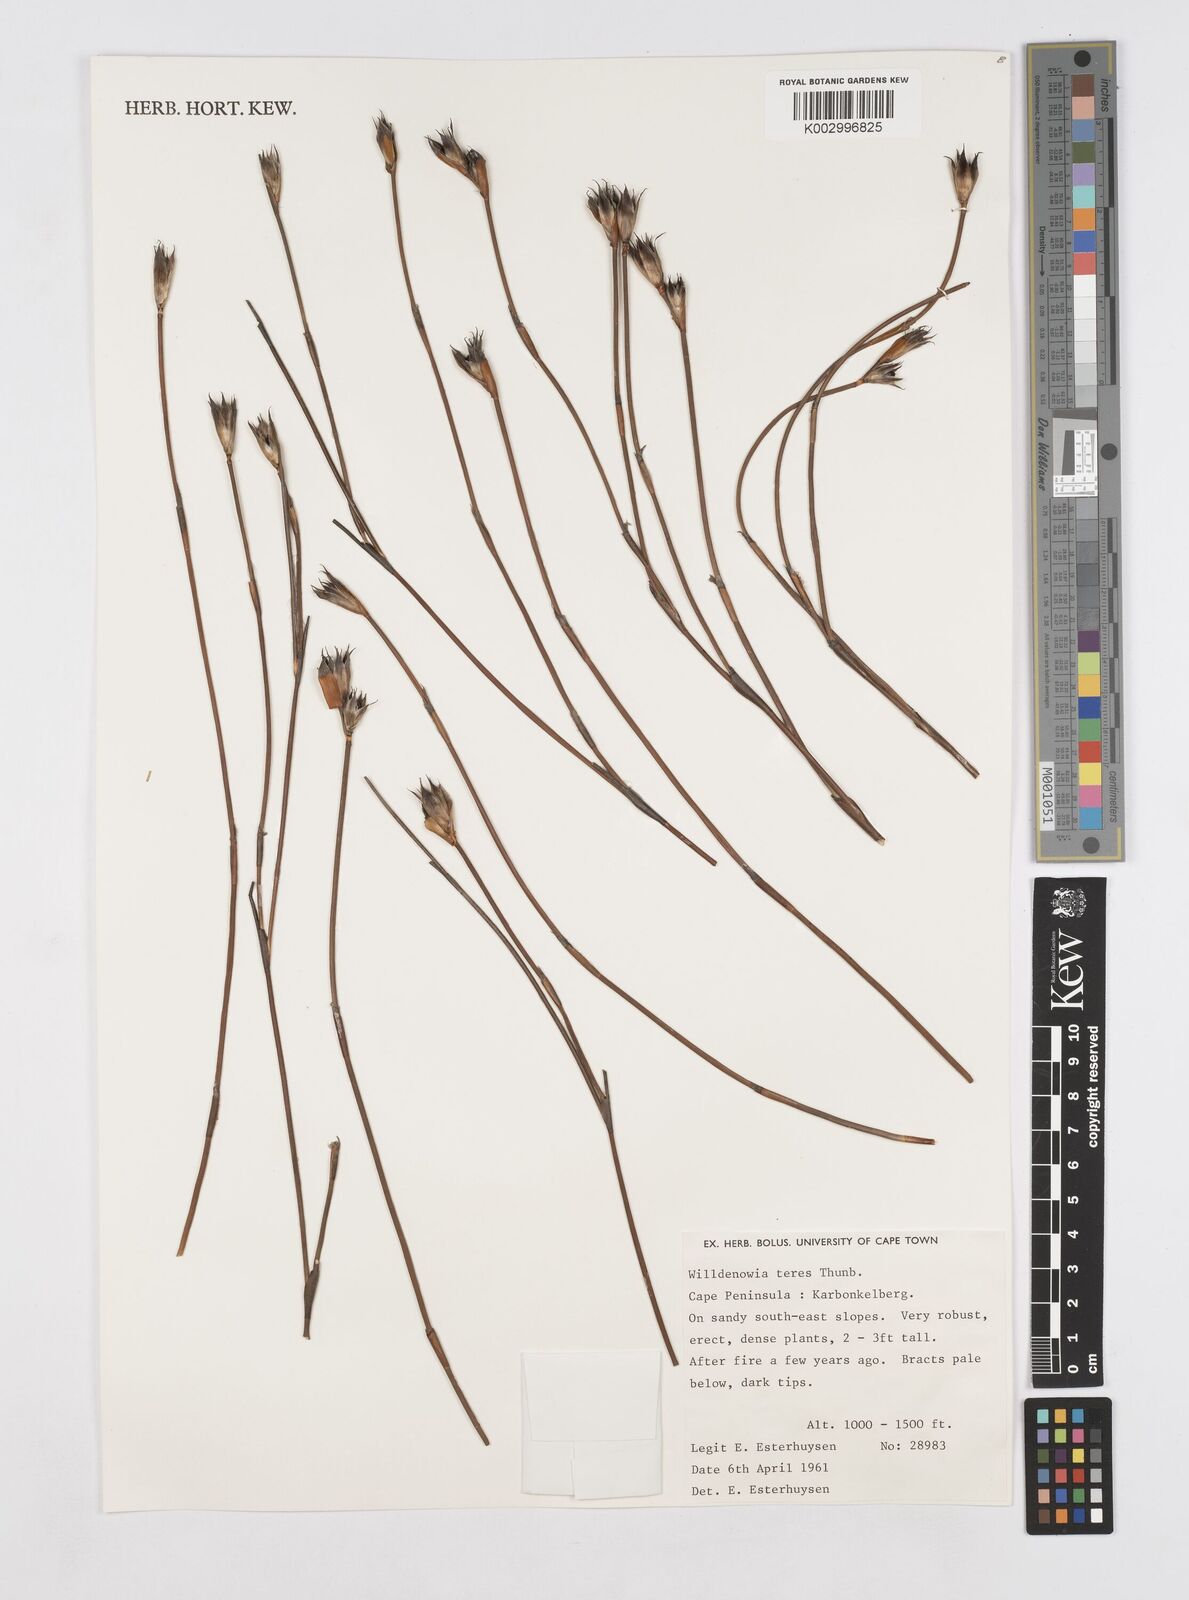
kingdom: Plantae
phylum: Tracheophyta
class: Liliopsida
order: Poales
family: Restionaceae
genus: Willdenowia
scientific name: Willdenowia teres
